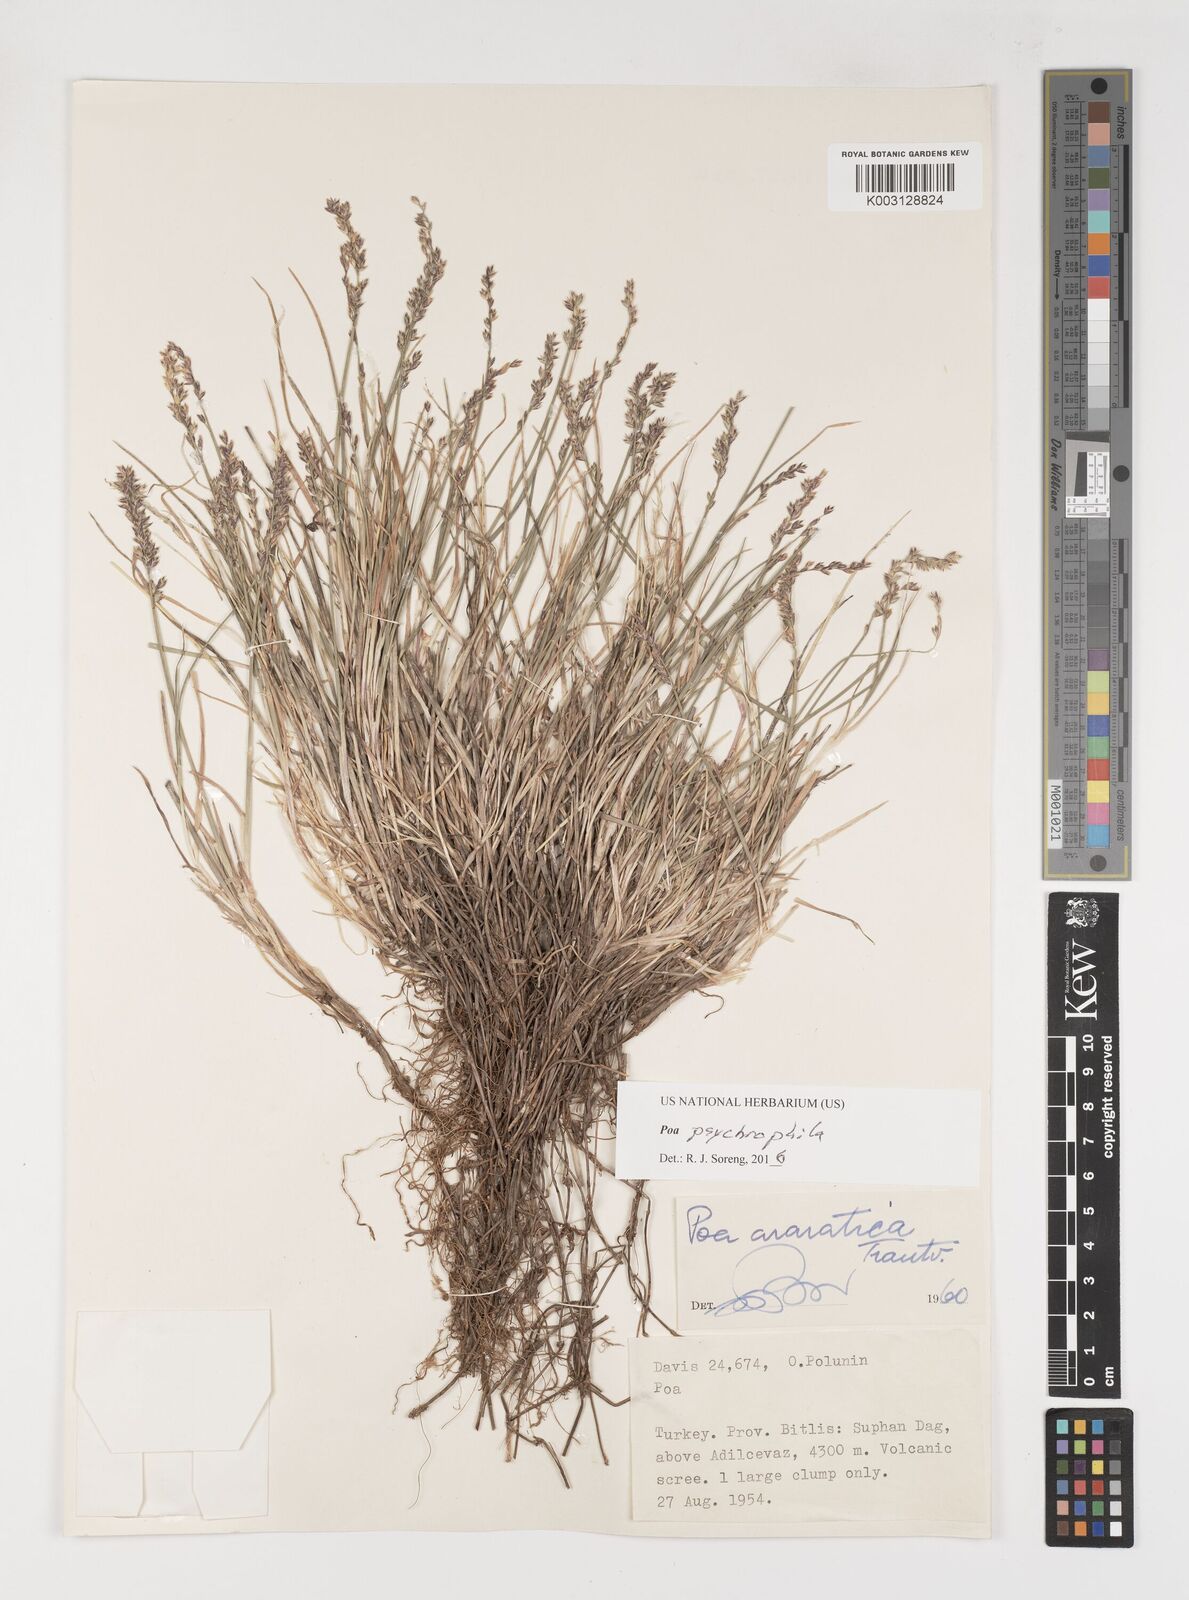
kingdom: Plantae
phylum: Tracheophyta
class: Liliopsida
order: Poales
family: Poaceae
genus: Poa
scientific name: Poa cenisia
